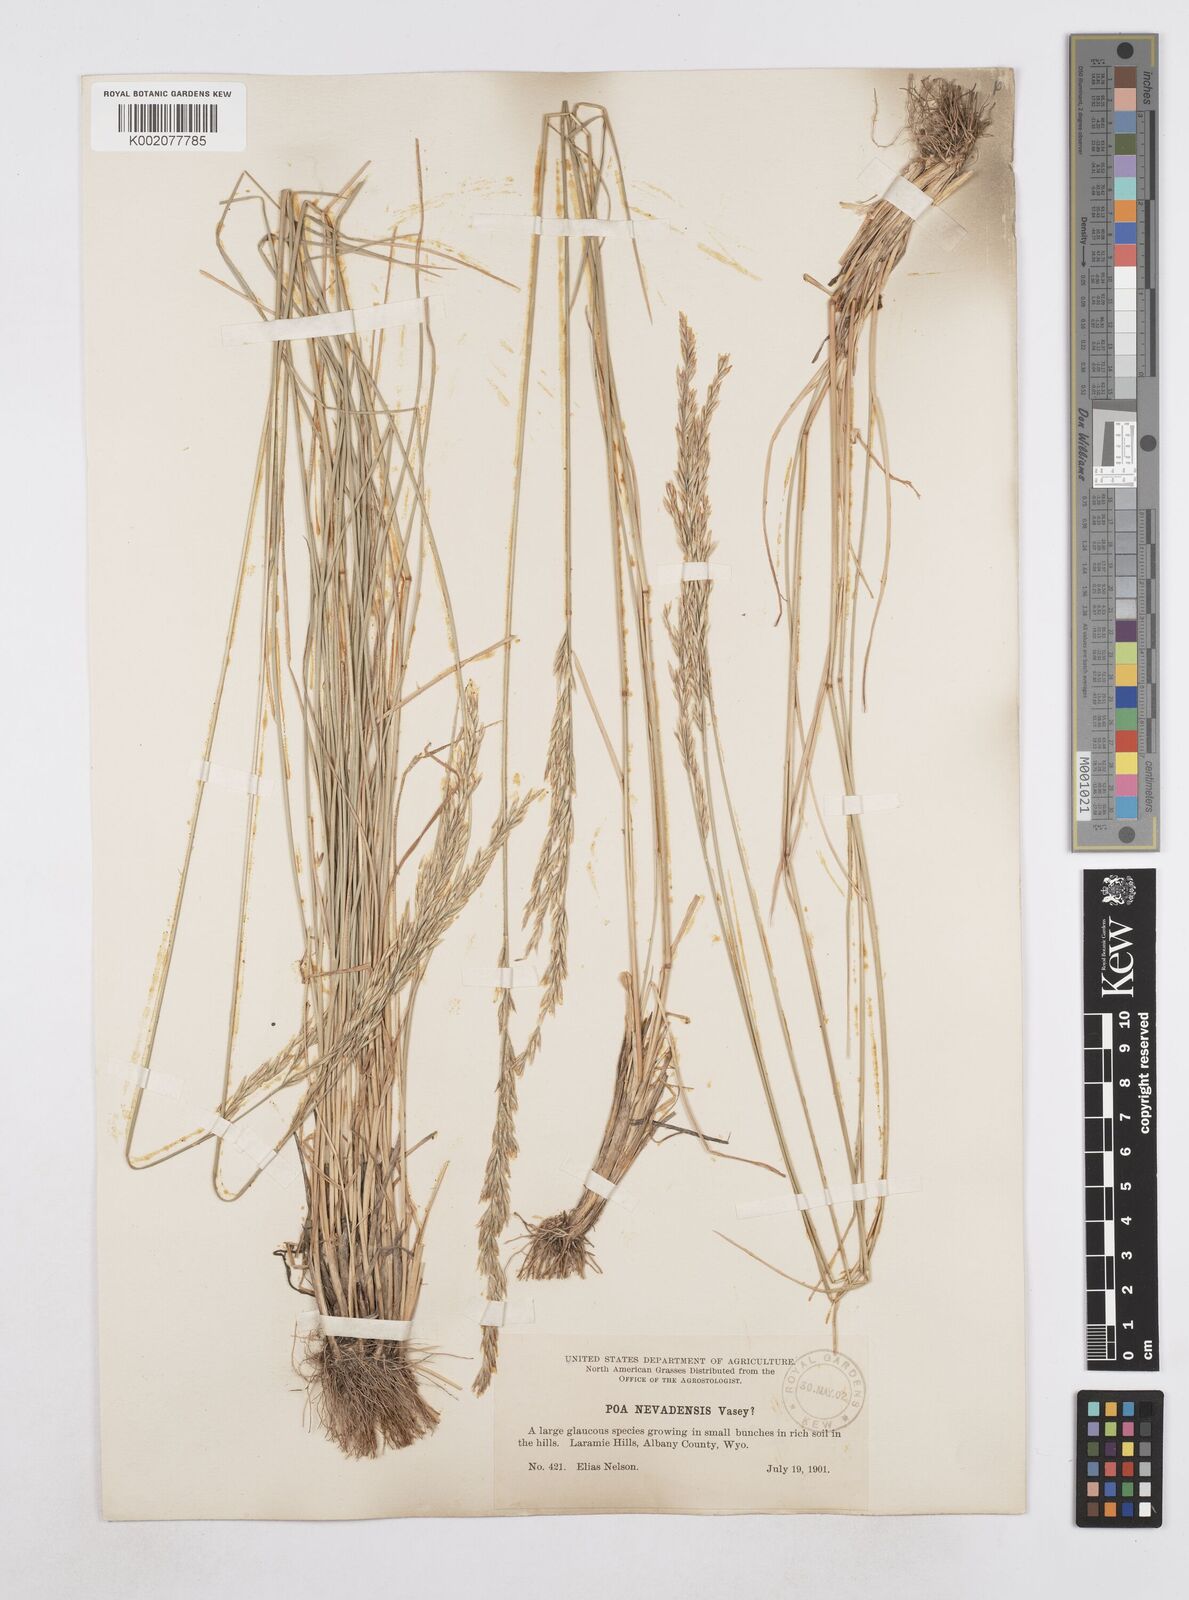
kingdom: Plantae
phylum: Tracheophyta
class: Liliopsida
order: Poales
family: Poaceae
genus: Poa
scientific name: Poa secunda
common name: Sandberg bluegrass
